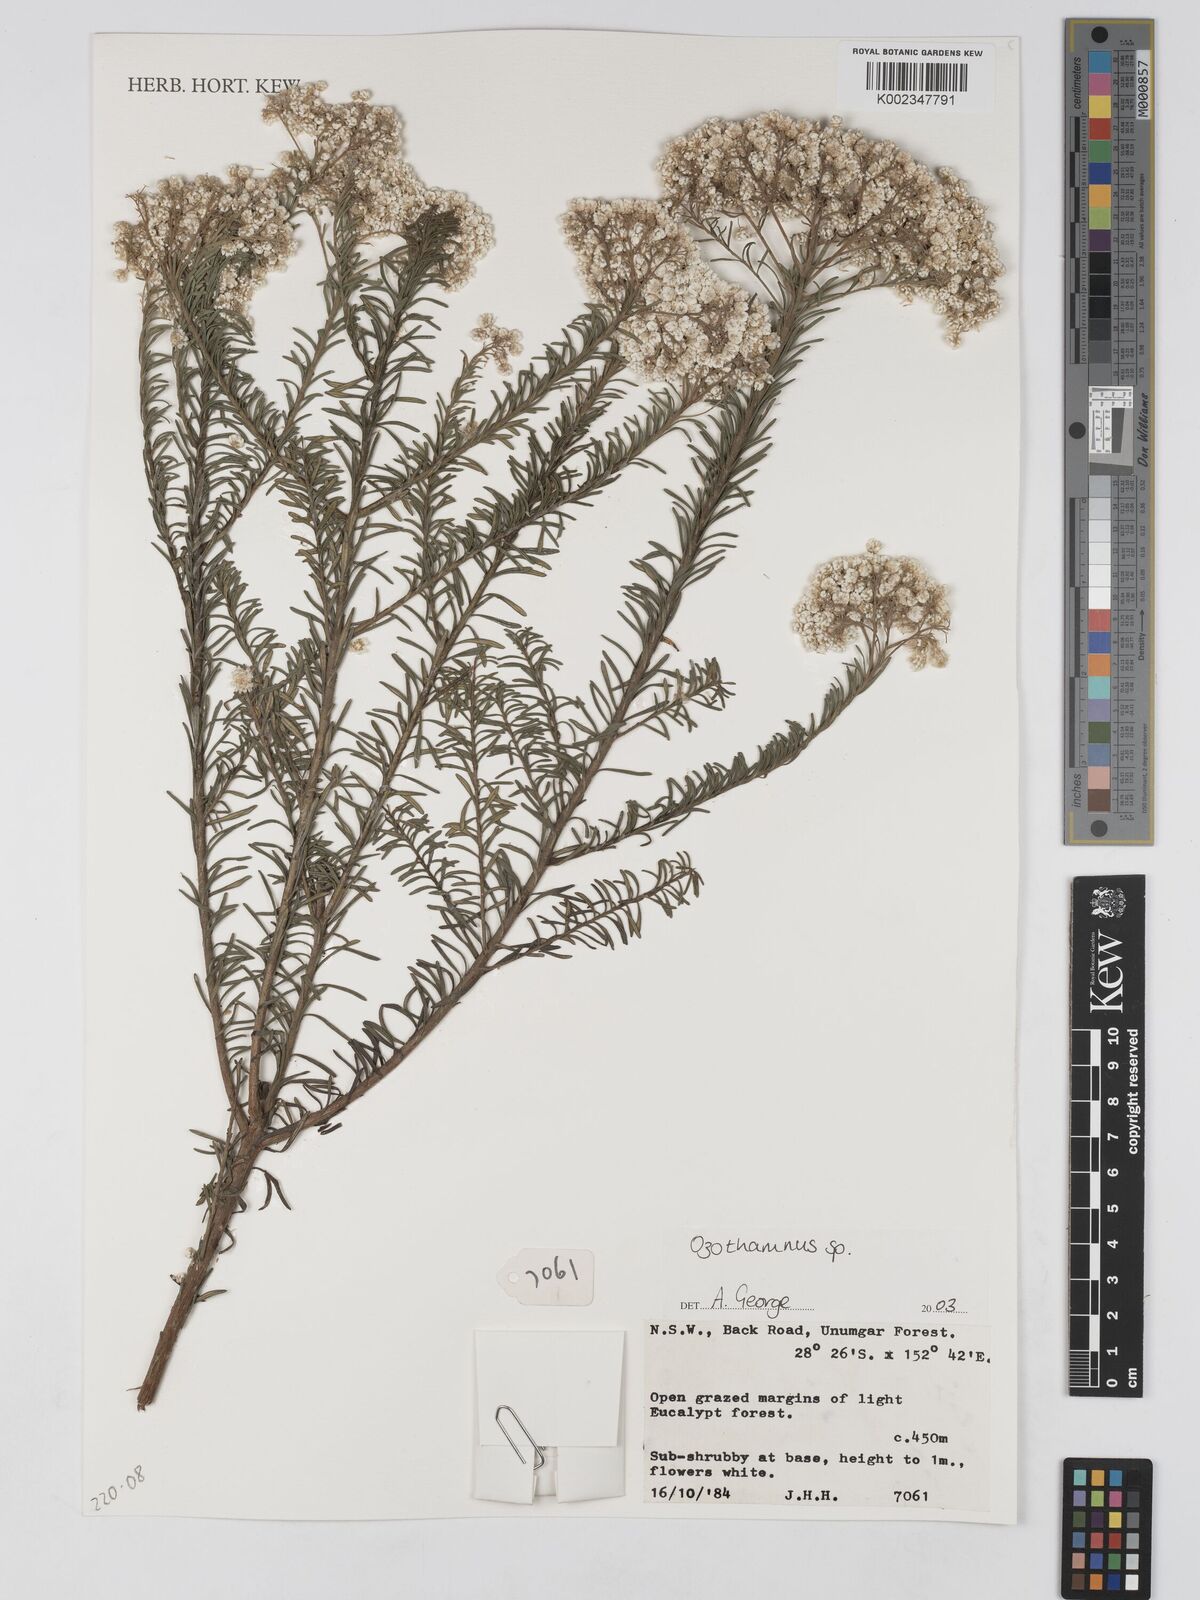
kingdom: Plantae
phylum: Tracheophyta
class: Magnoliopsida
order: Asterales
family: Asteraceae
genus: Ozothamnus
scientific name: Ozothamnus
